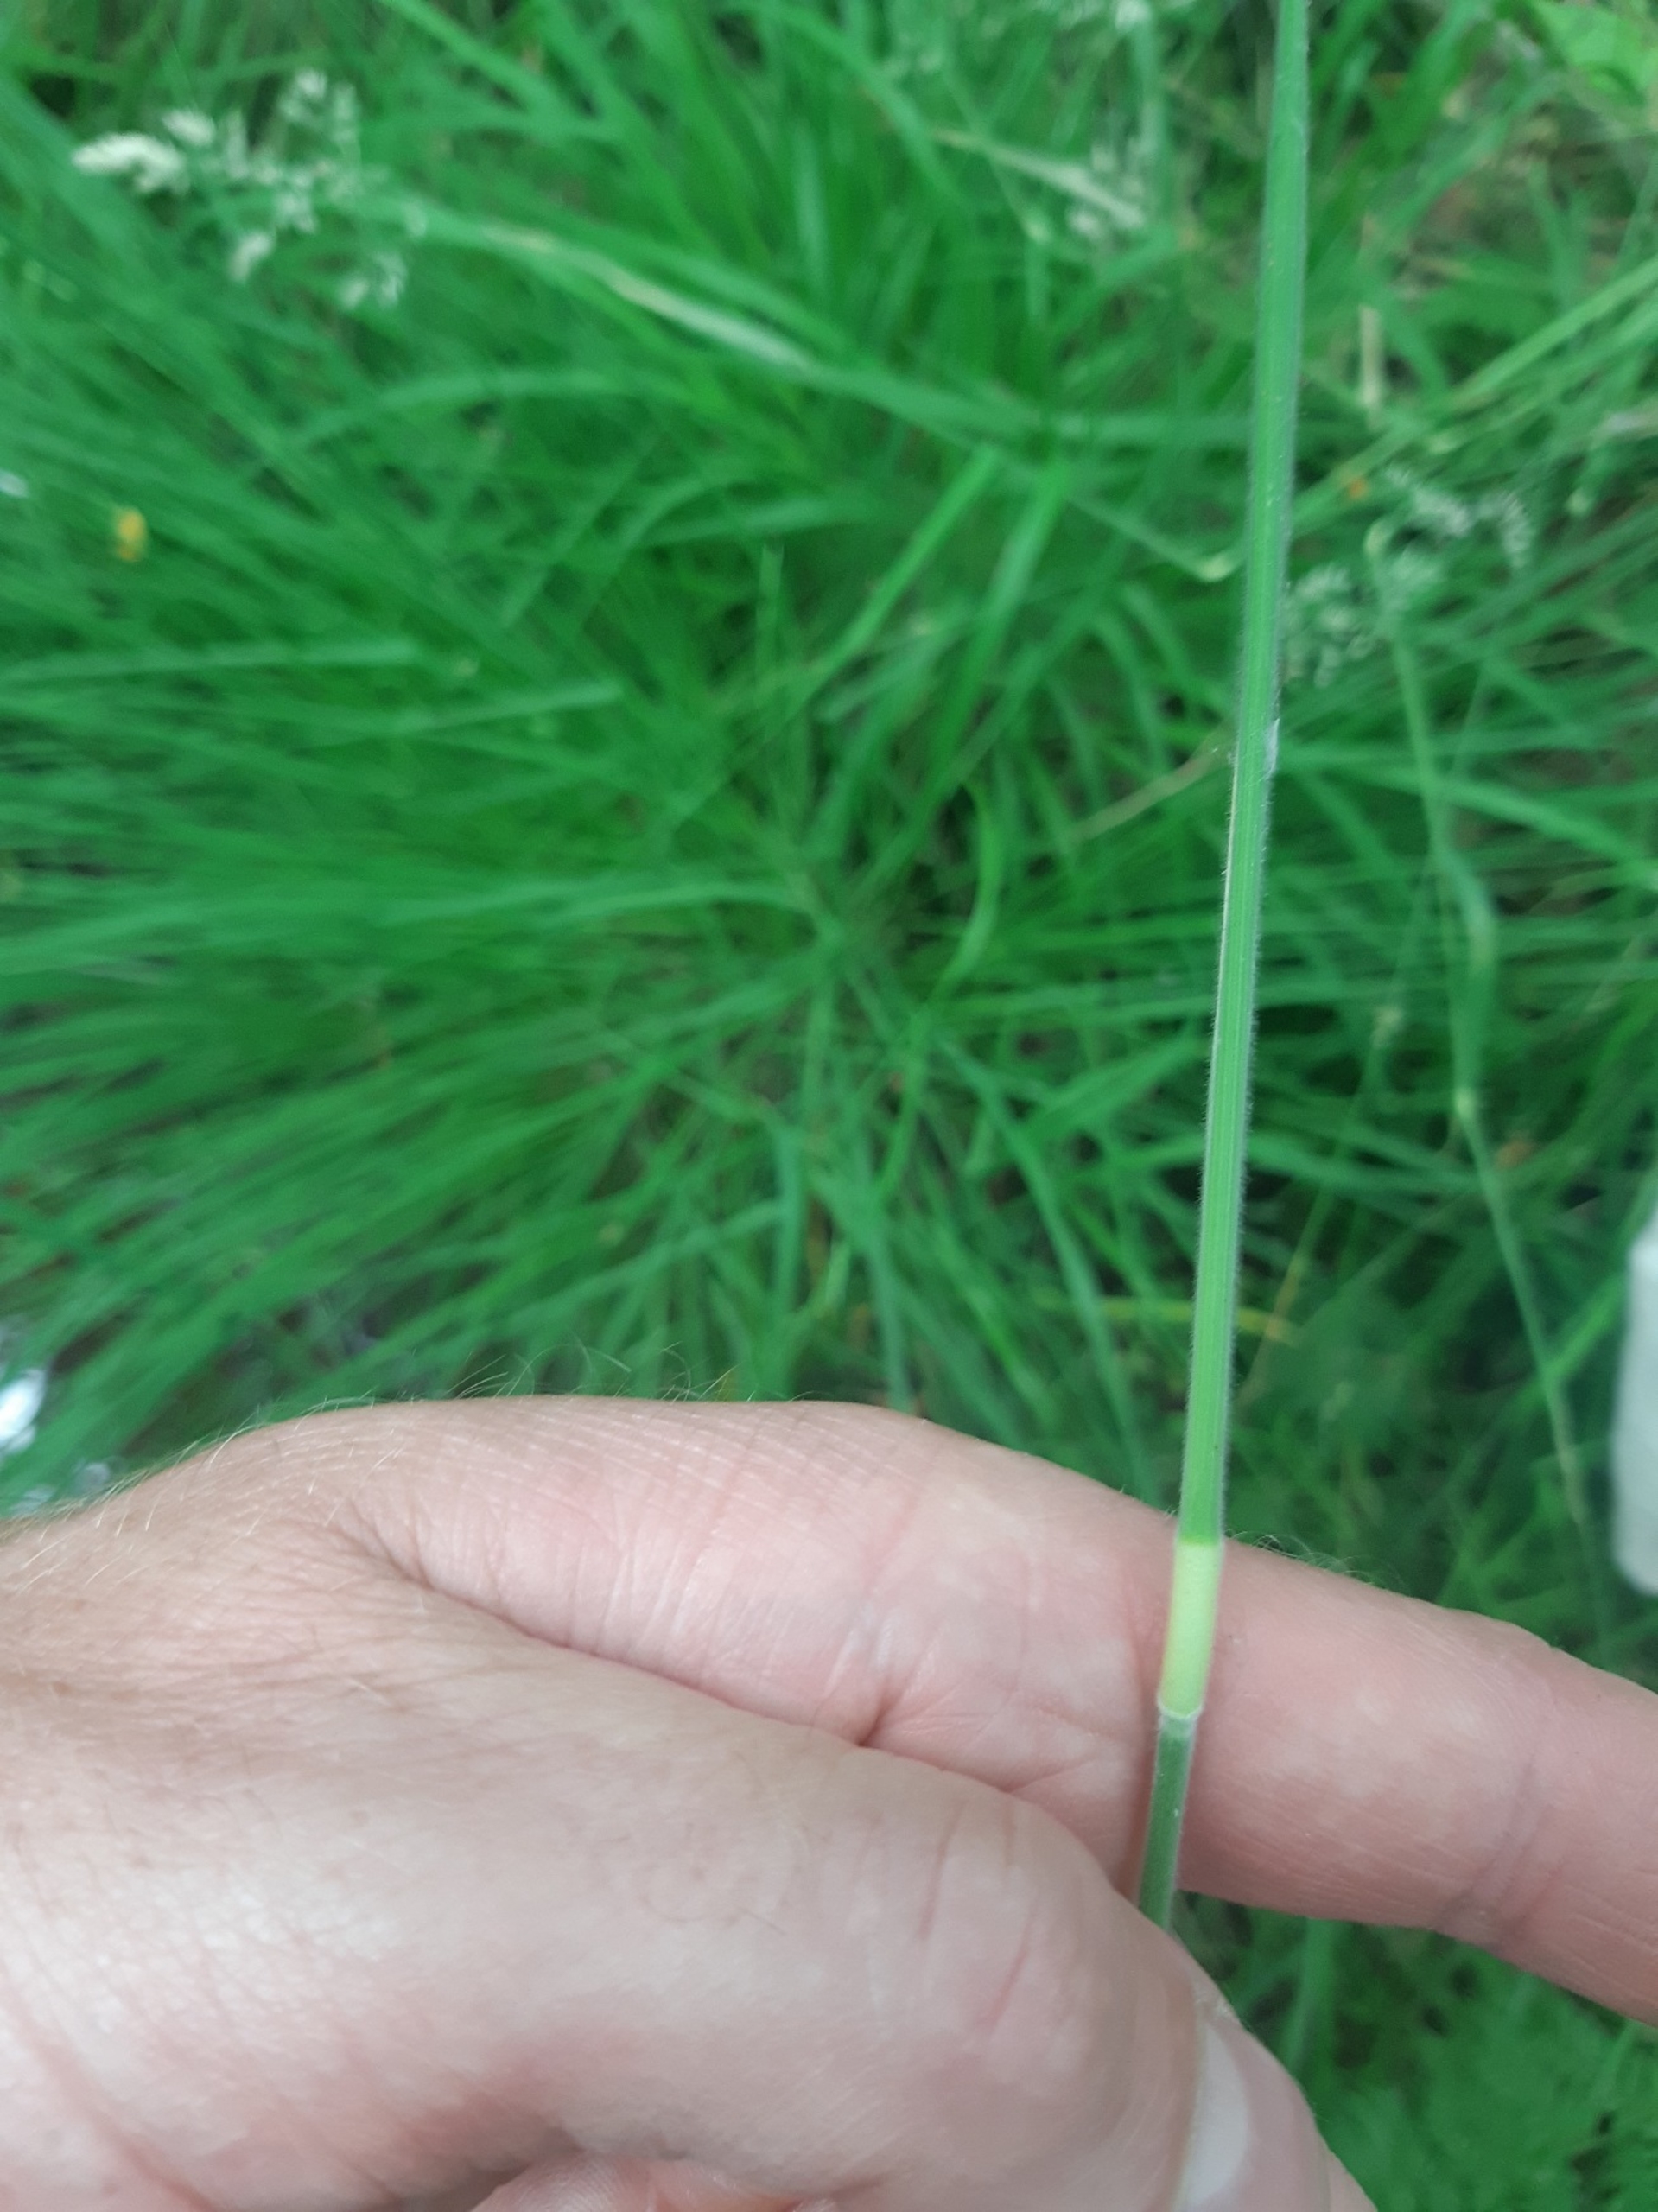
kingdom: Plantae
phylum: Tracheophyta
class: Liliopsida
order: Poales
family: Poaceae
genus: Holcus
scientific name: Holcus lanatus
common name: Fløjlsgræs
